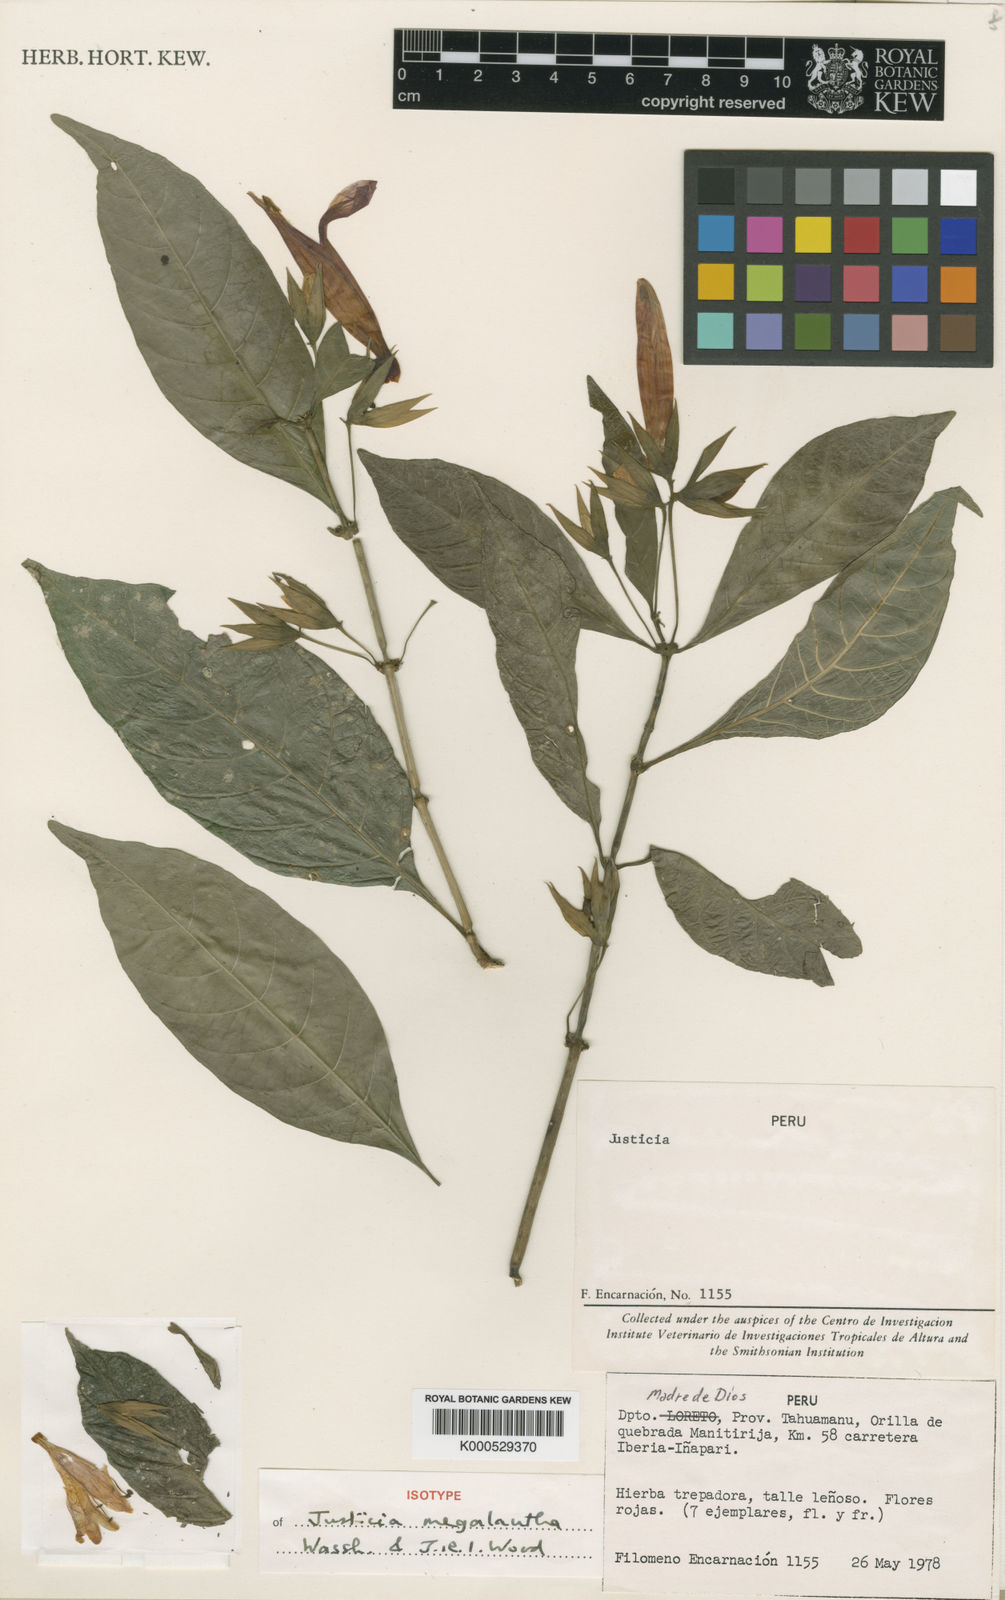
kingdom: Plantae
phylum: Tracheophyta
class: Magnoliopsida
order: Lamiales
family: Acanthaceae
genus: Justicia
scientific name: Justicia megalantha
